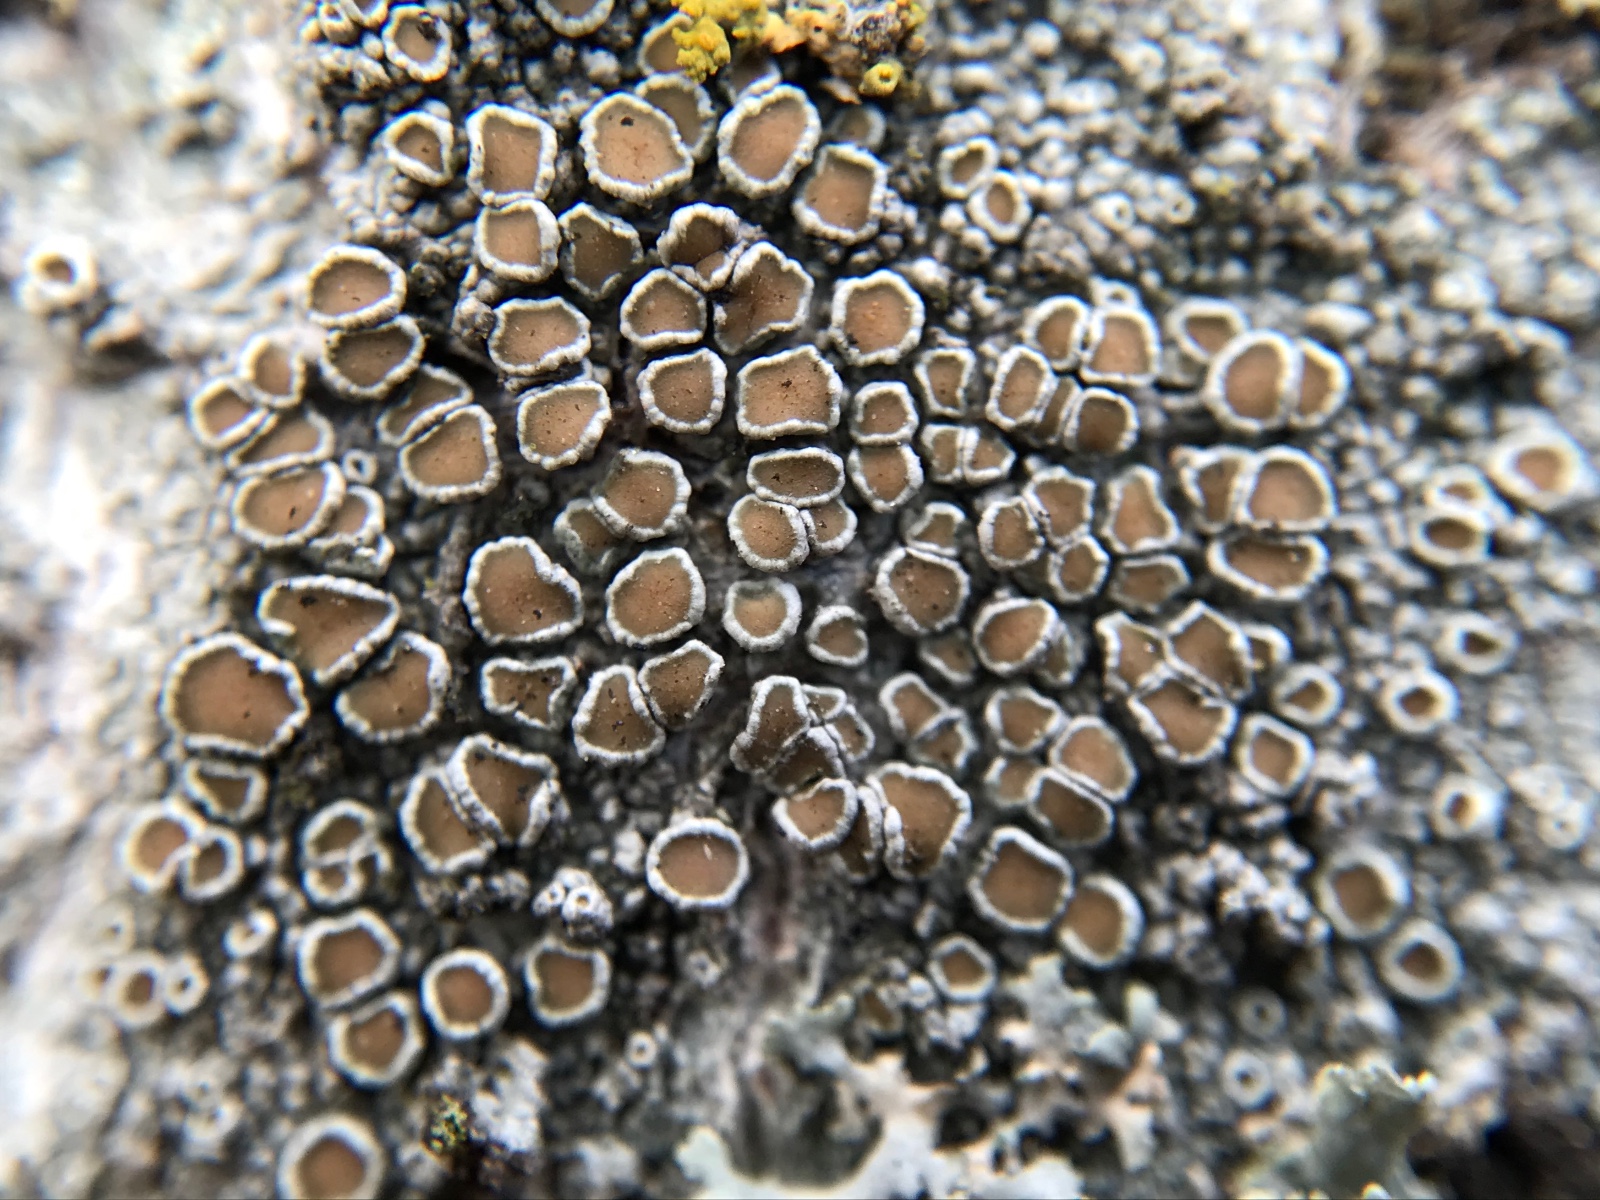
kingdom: Fungi
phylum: Ascomycota
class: Lecanoromycetes
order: Lecanorales
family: Lecanoraceae
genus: Lecanora
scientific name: Lecanora chlarotera
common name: brun kantskivelav
